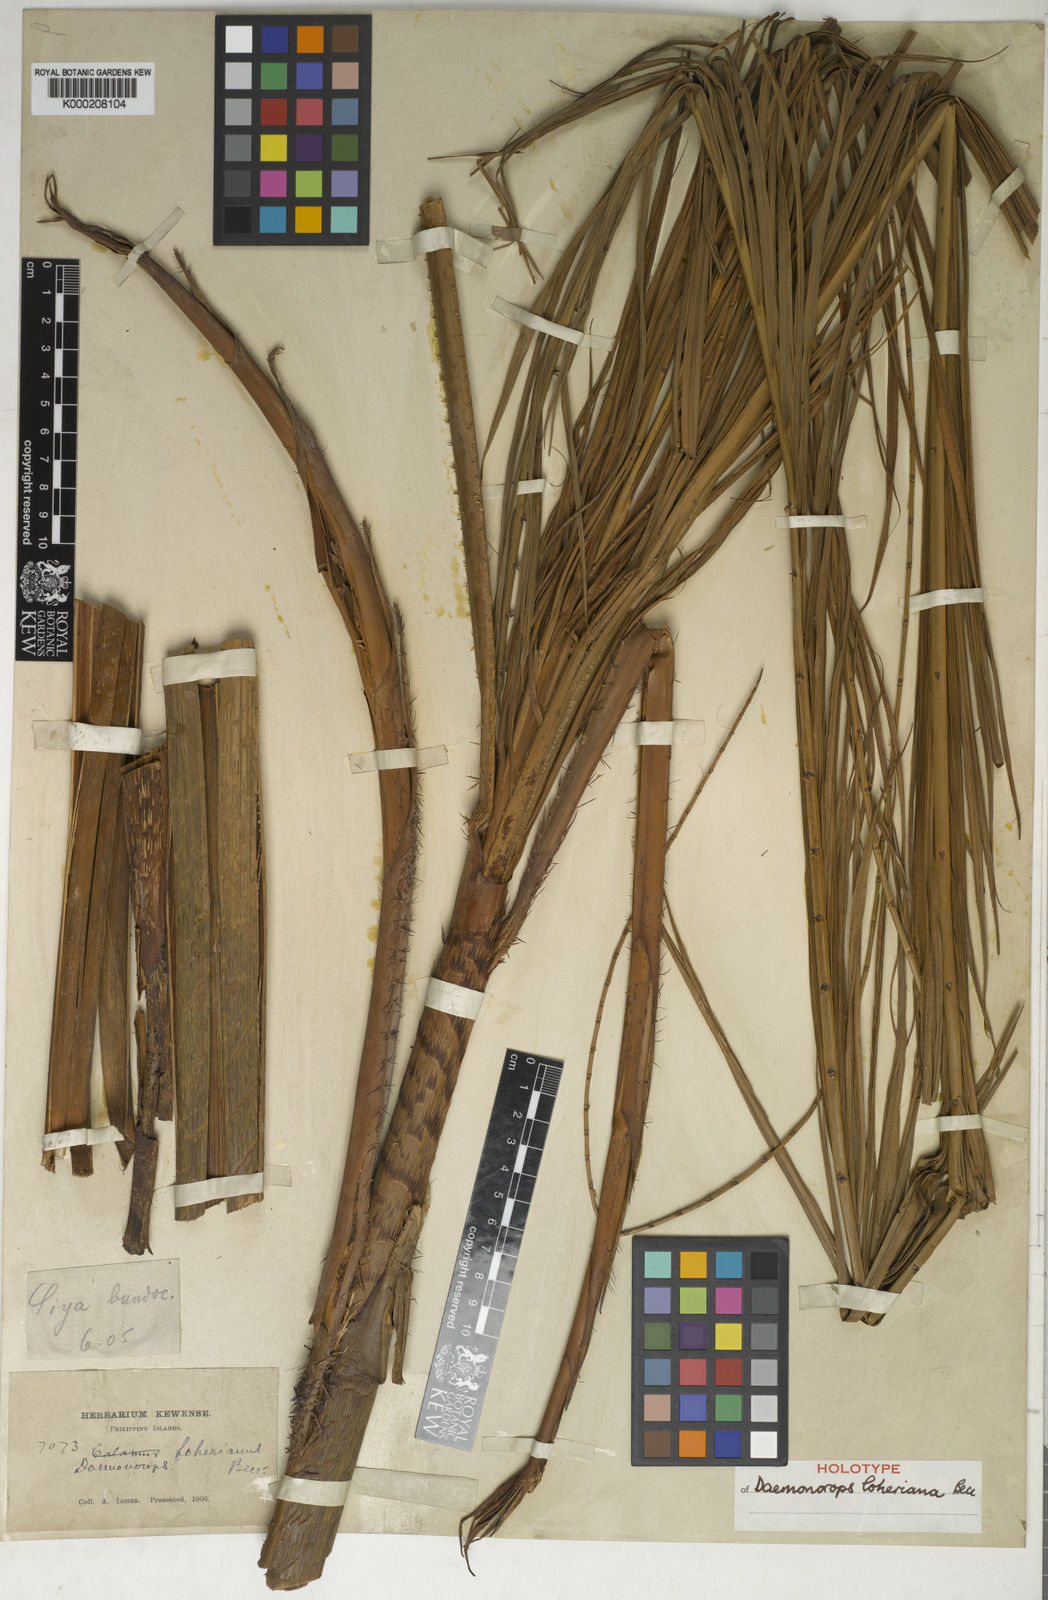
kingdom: Plantae
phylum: Tracheophyta
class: Liliopsida
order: Arecales
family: Arecaceae
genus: Calamus
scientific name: Calamus loherianus
